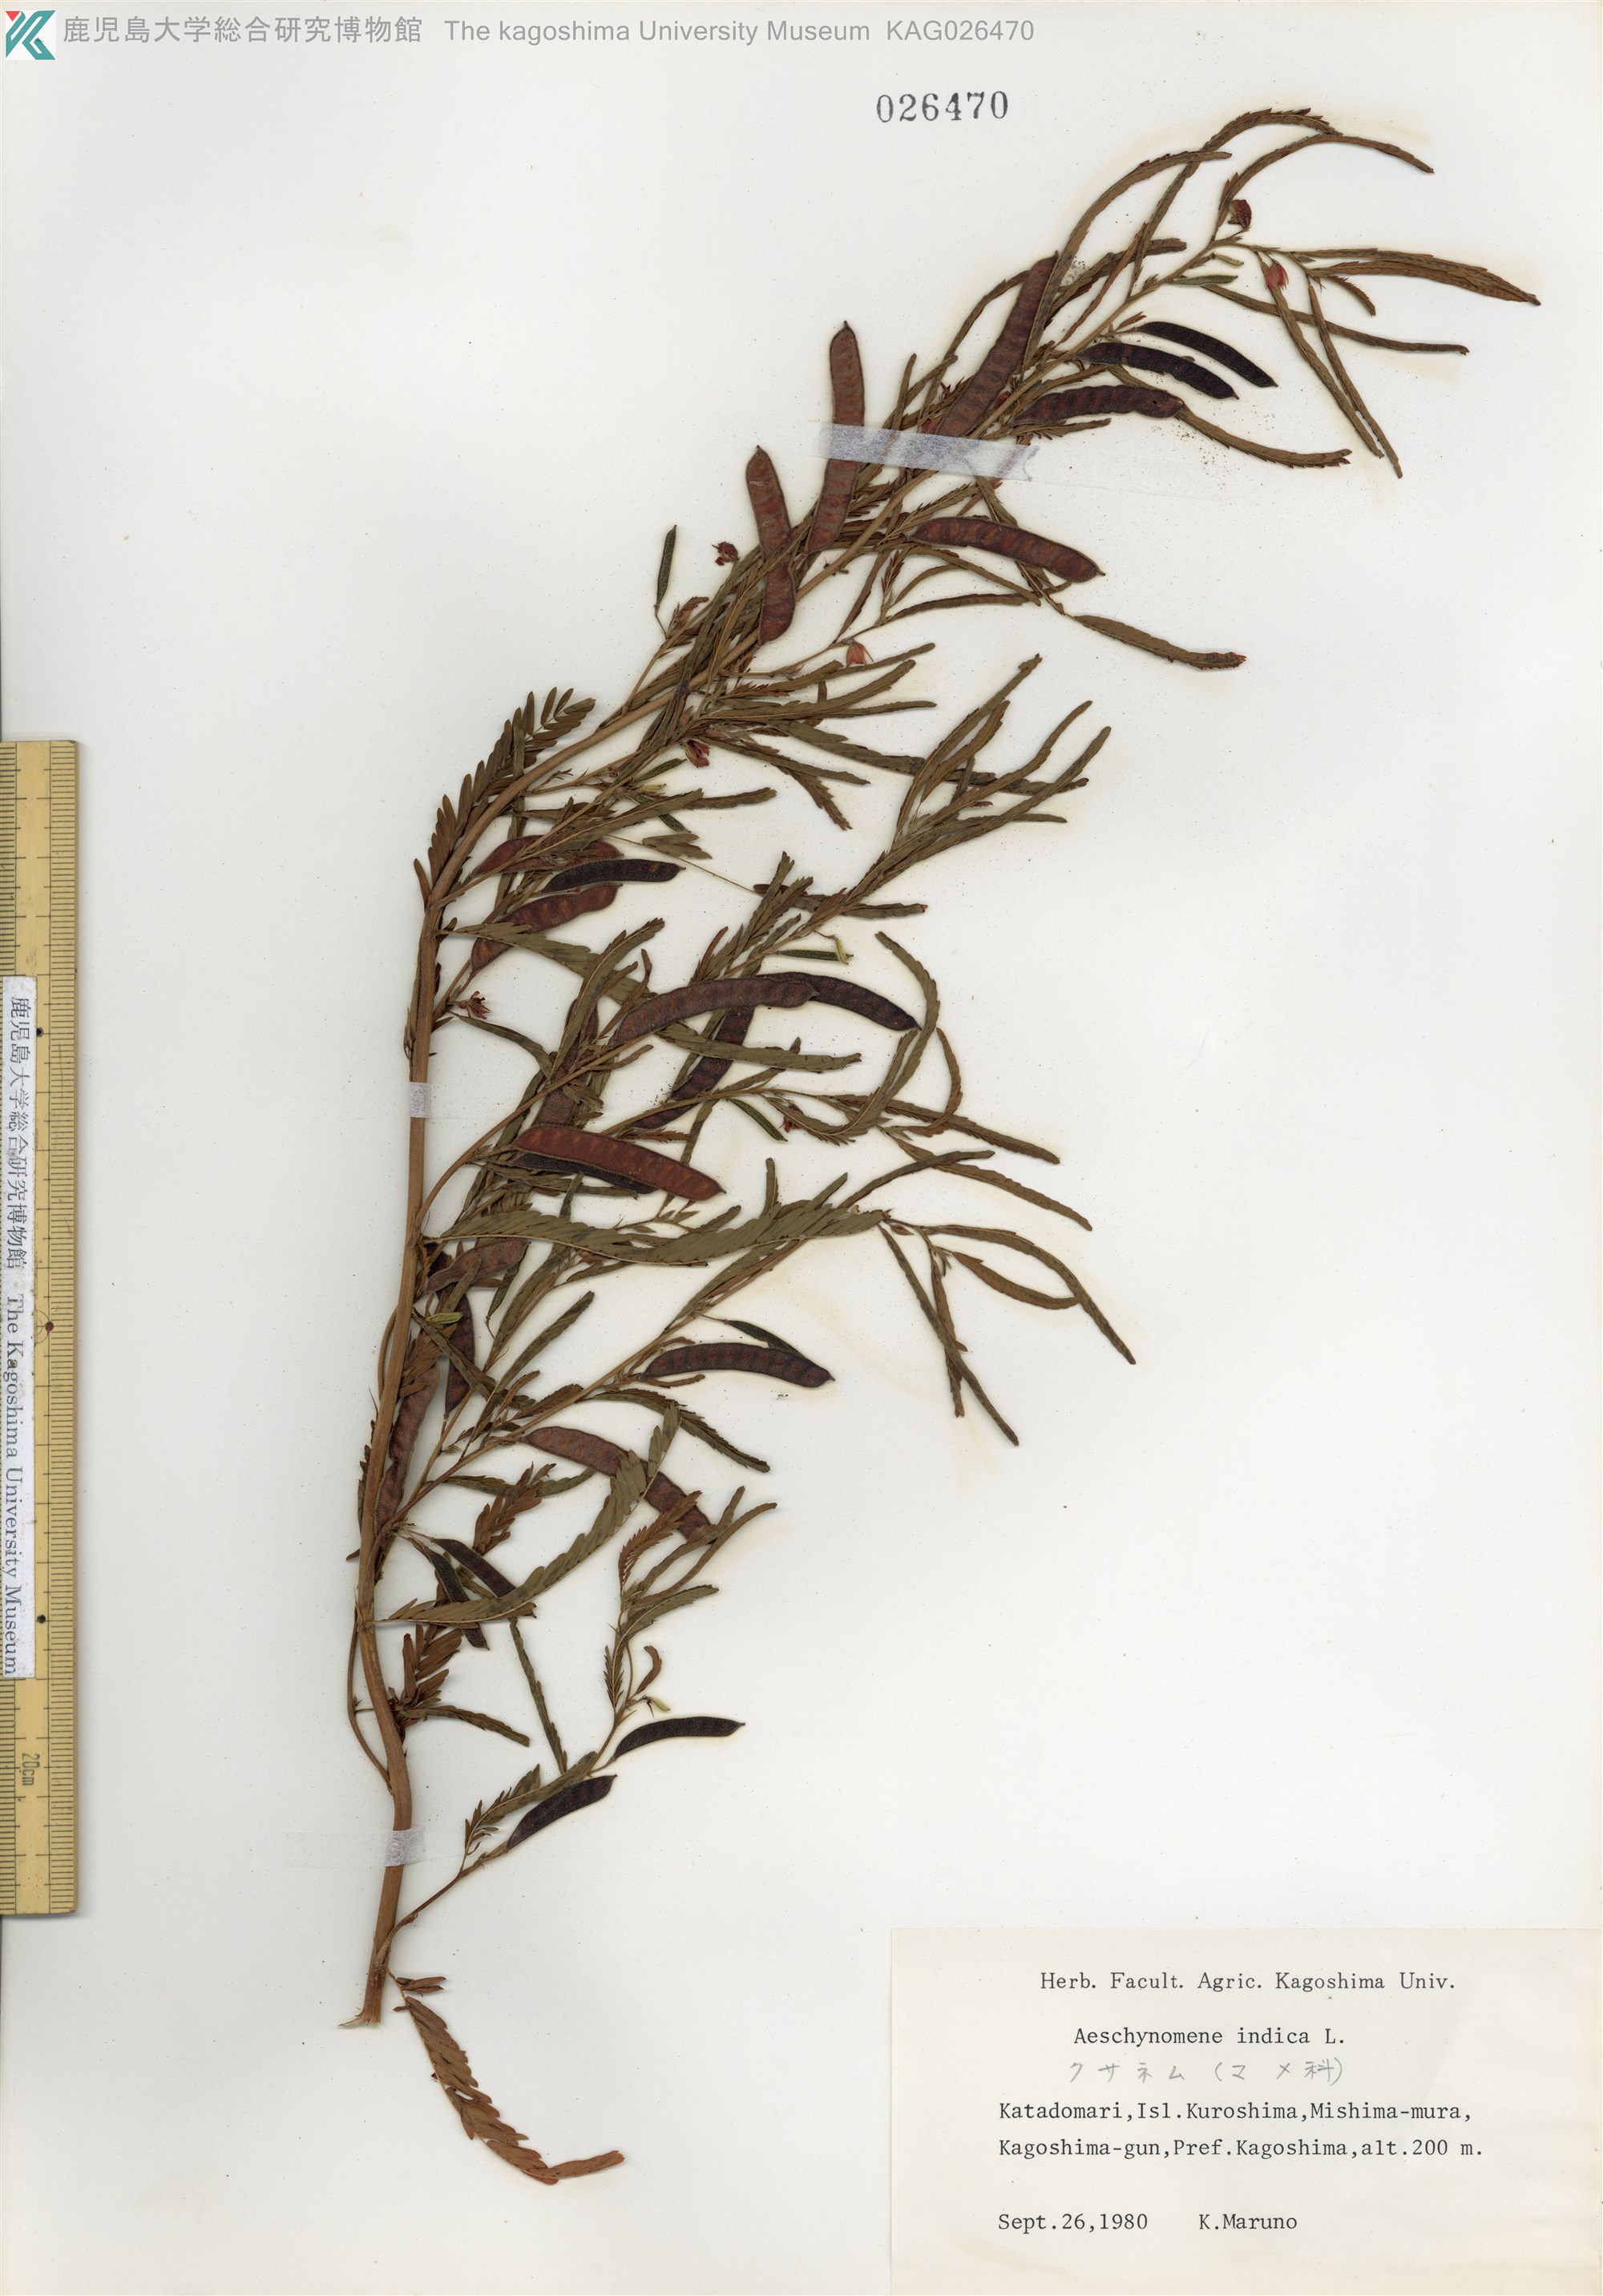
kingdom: Plantae
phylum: Tracheophyta
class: Magnoliopsida
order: Fabales
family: Fabaceae
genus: Chamaecrista
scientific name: Chamaecrista nomame
